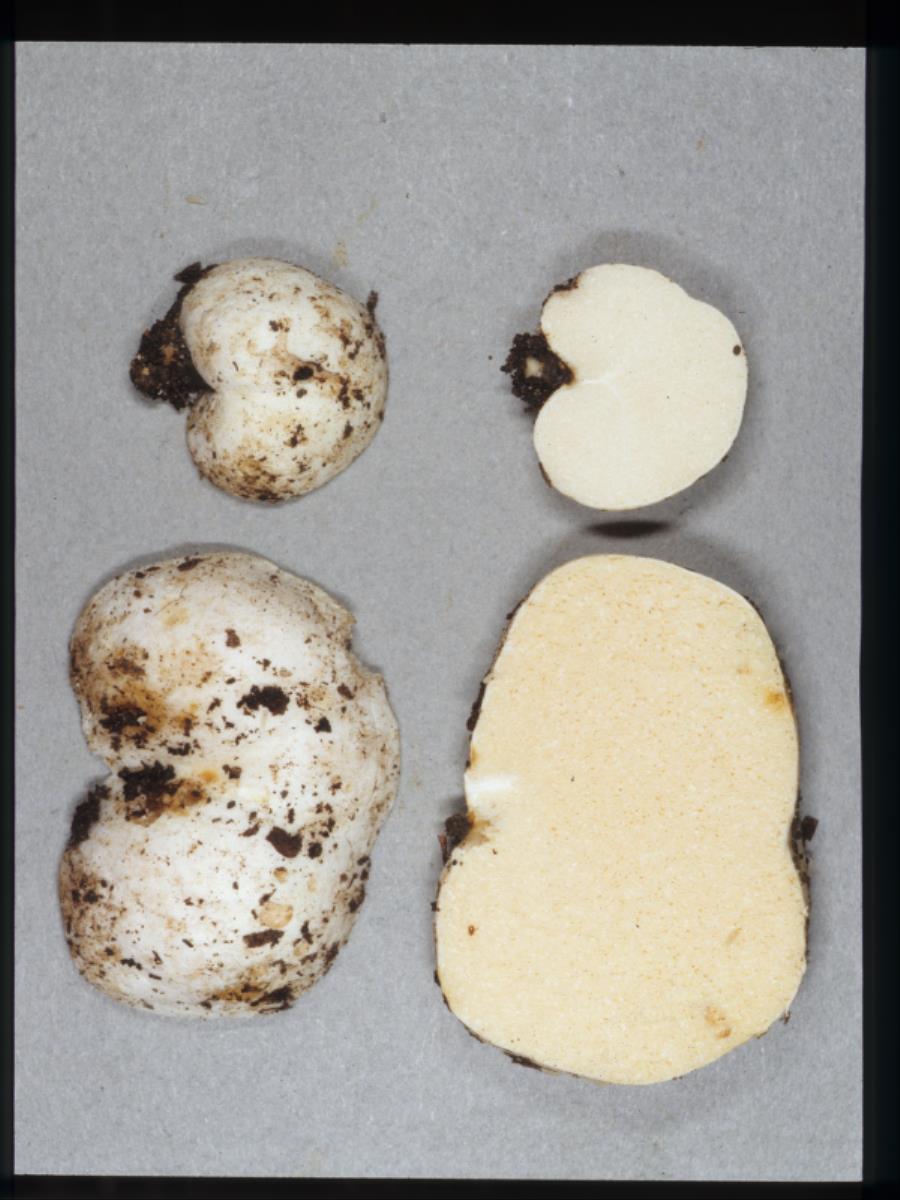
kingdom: Fungi
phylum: Basidiomycota
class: Agaricomycetes
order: Russulales
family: Russulaceae
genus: Martellia
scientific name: Martellia
